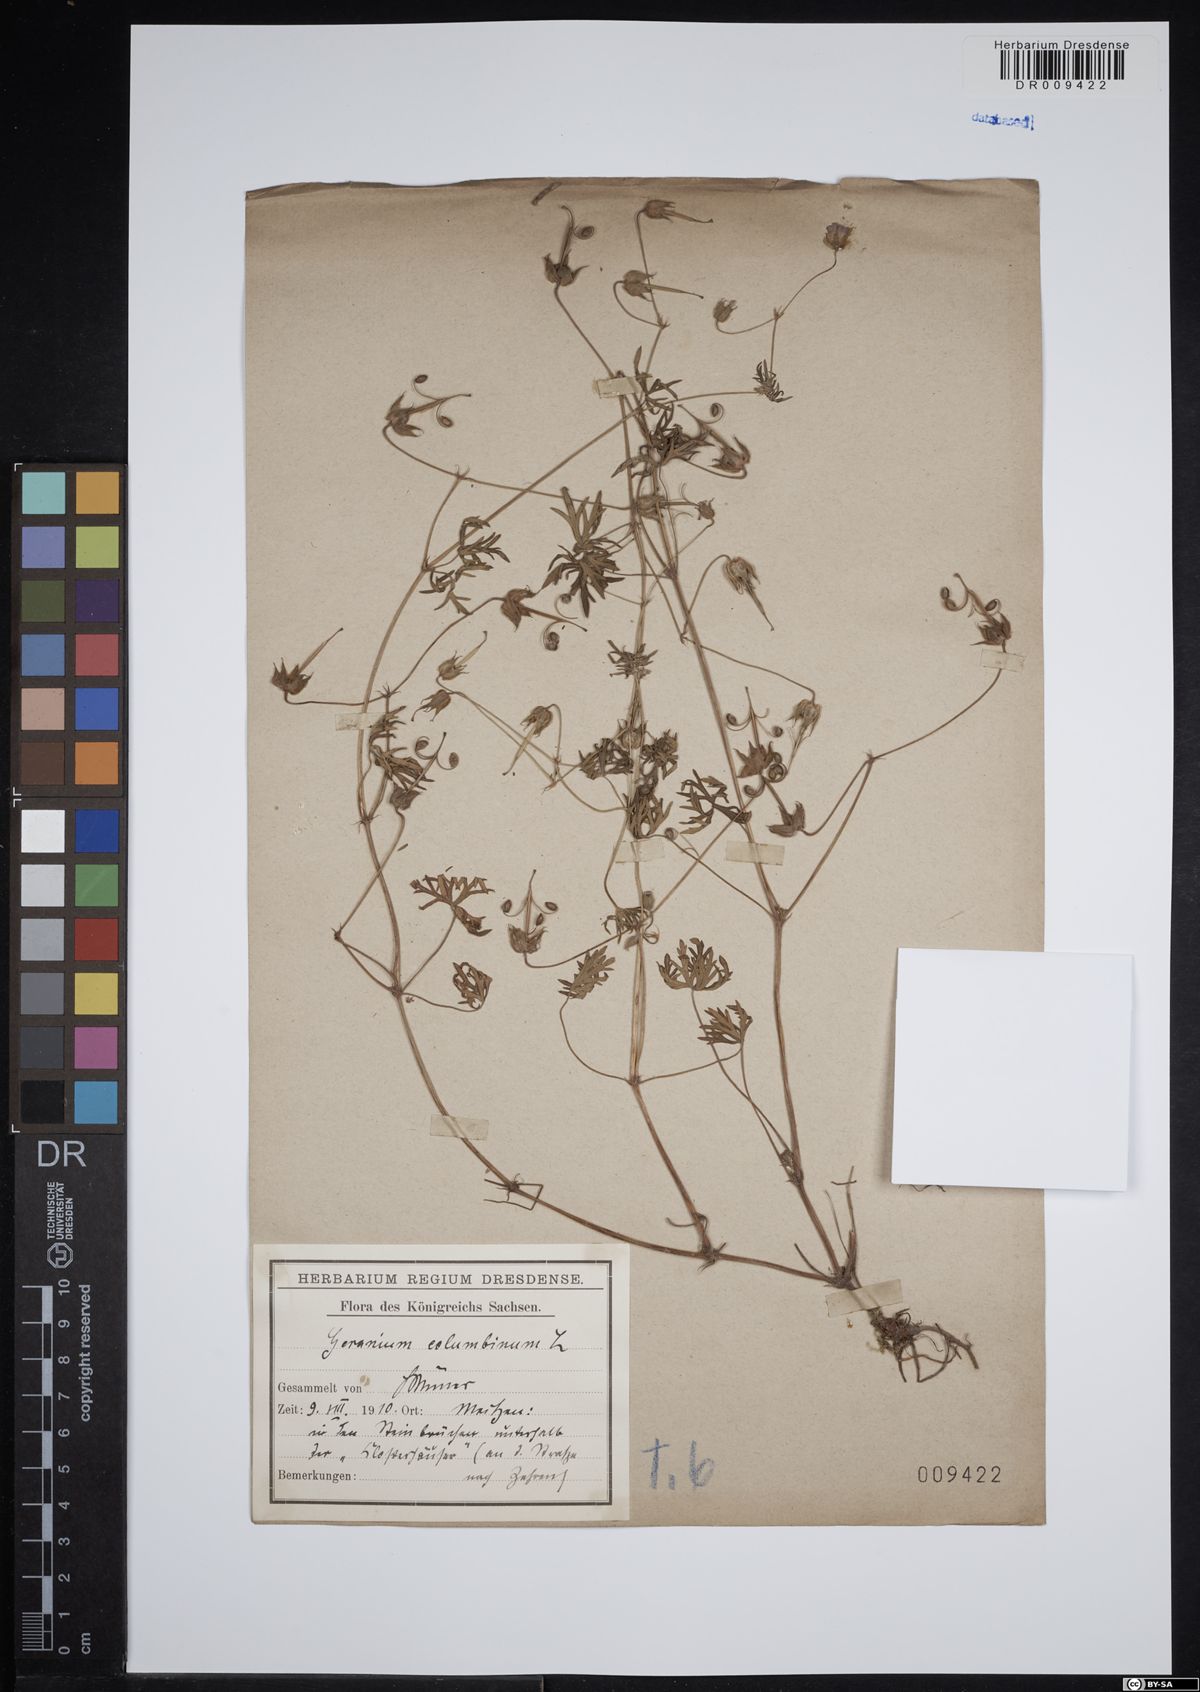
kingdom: Plantae
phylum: Tracheophyta
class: Magnoliopsida
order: Geraniales
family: Geraniaceae
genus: Geranium
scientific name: Geranium columbinum
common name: Long-stalked crane's-bill
